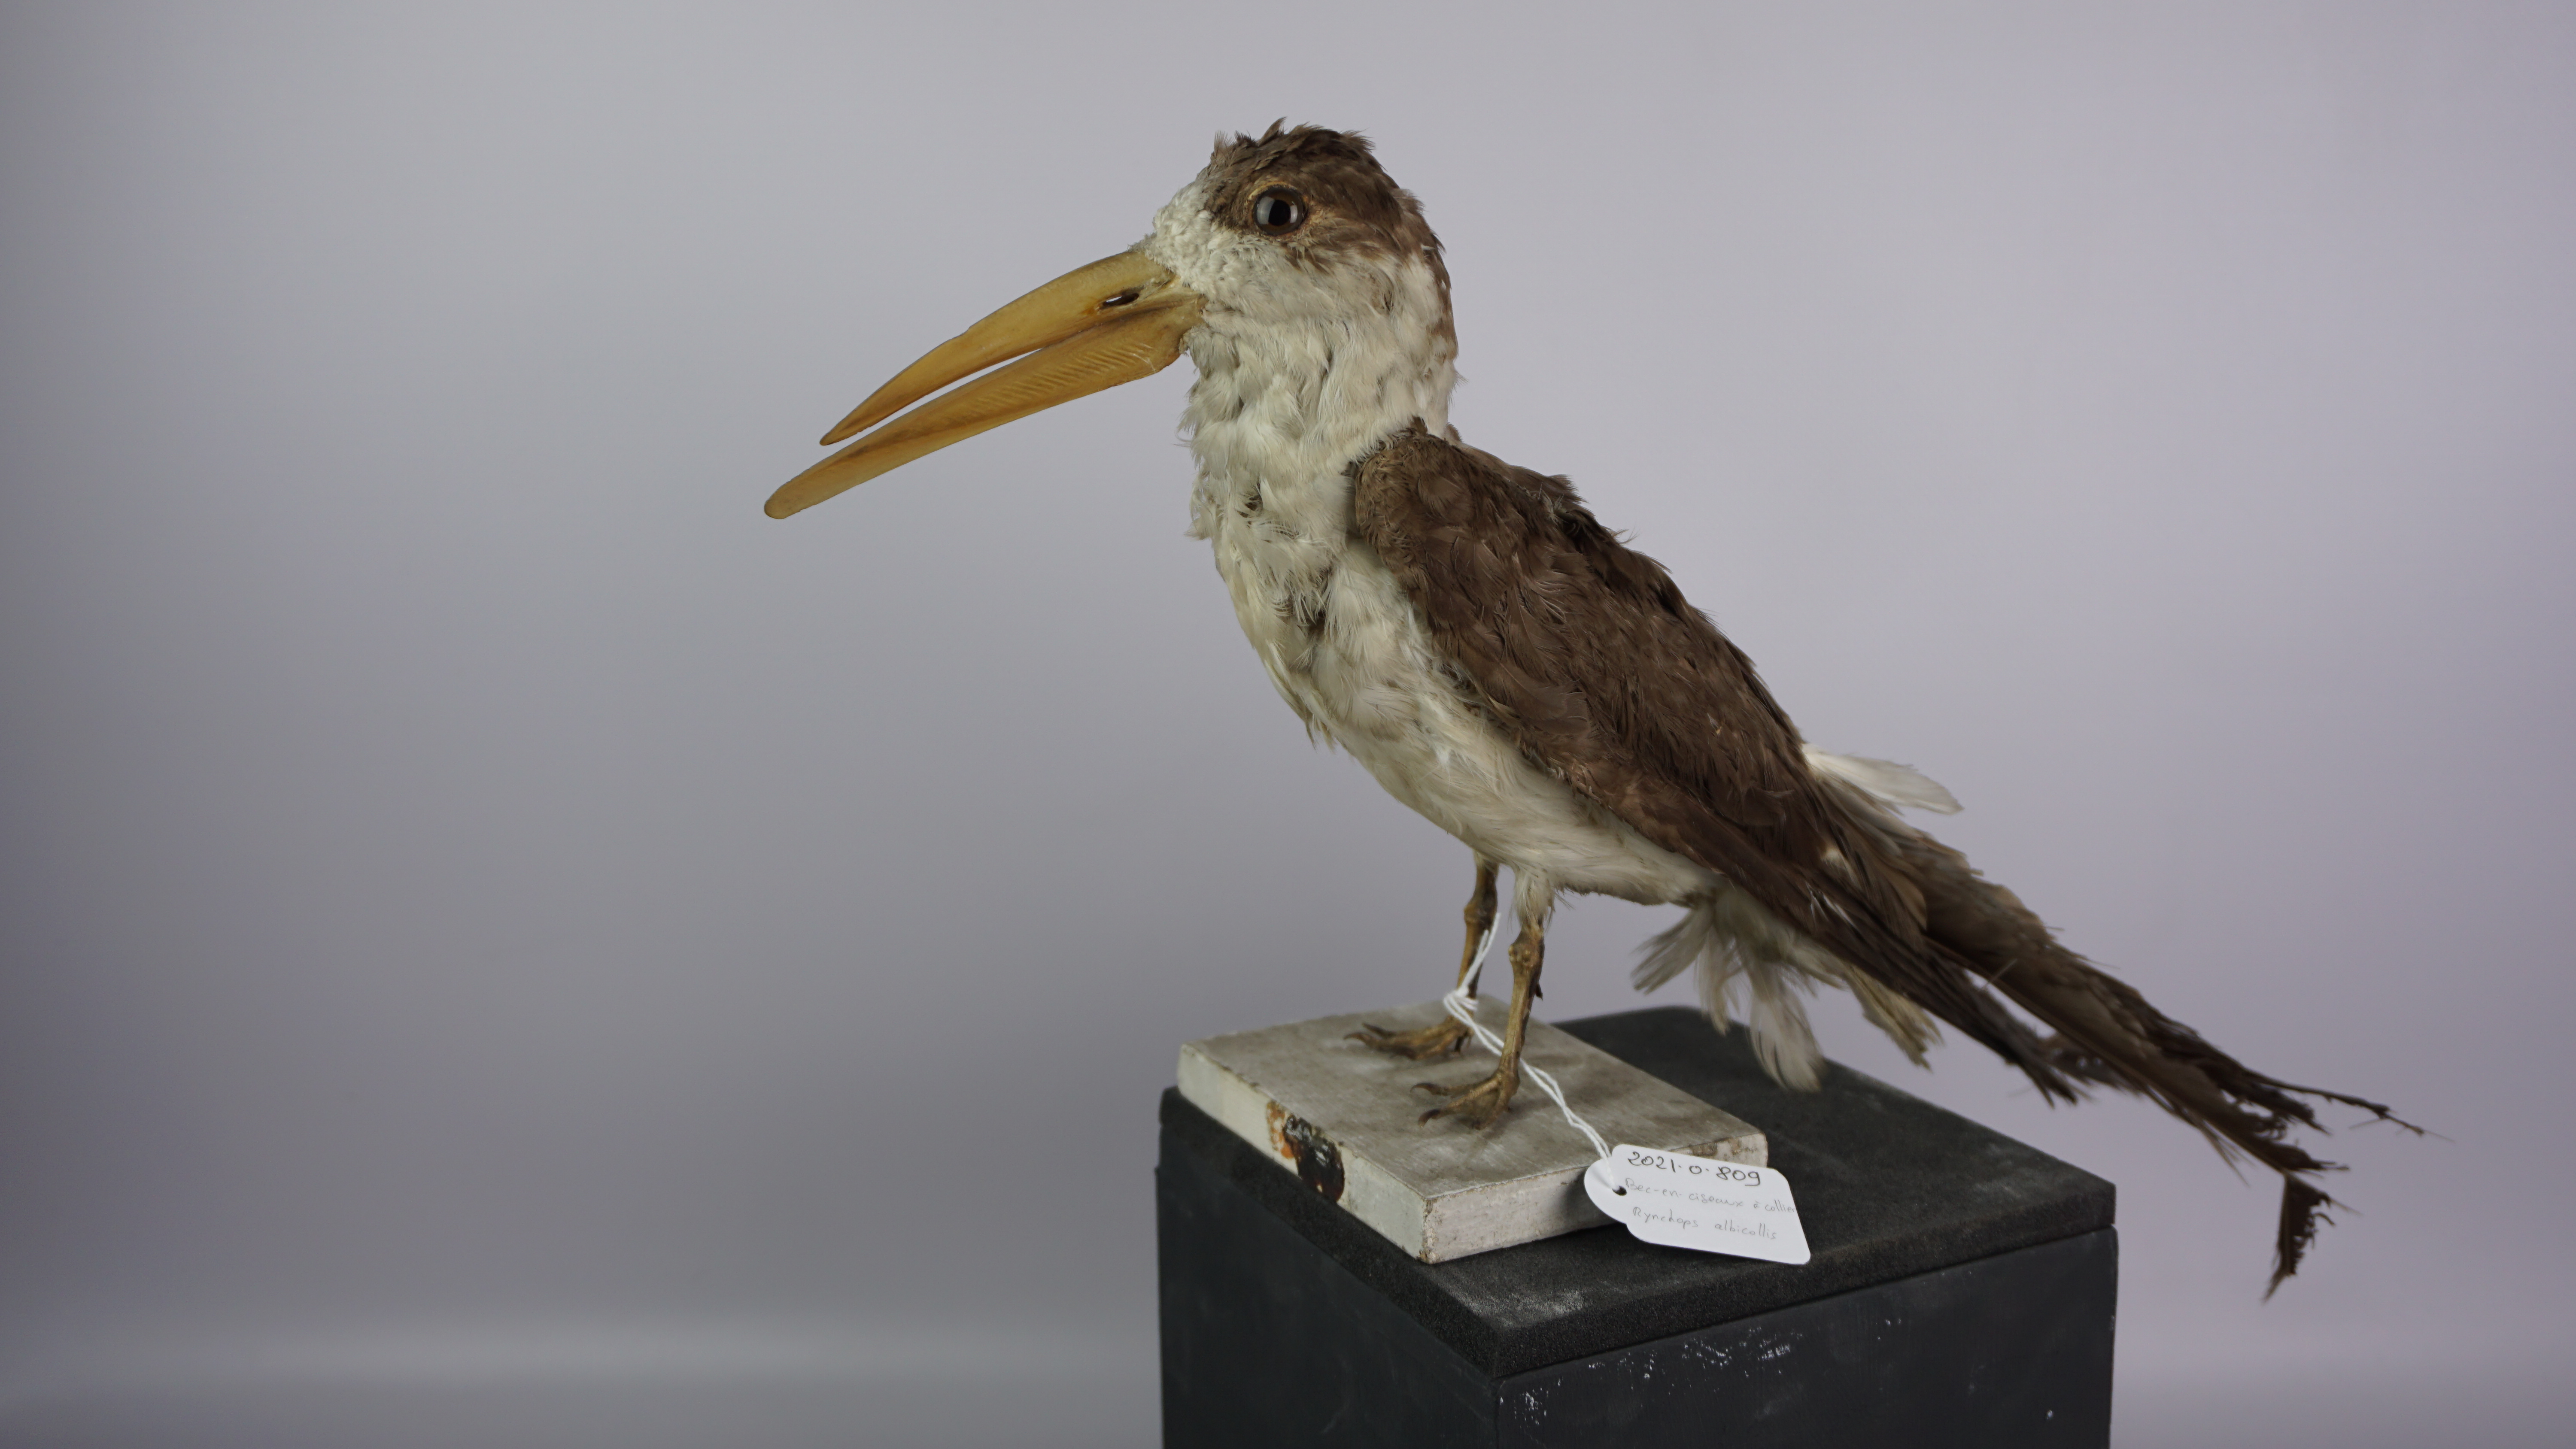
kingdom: Animalia
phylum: Chordata
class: Aves
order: Charadriiformes
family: Laridae
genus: Rynchops
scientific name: Rynchops albicollis
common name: Indian skimmer
